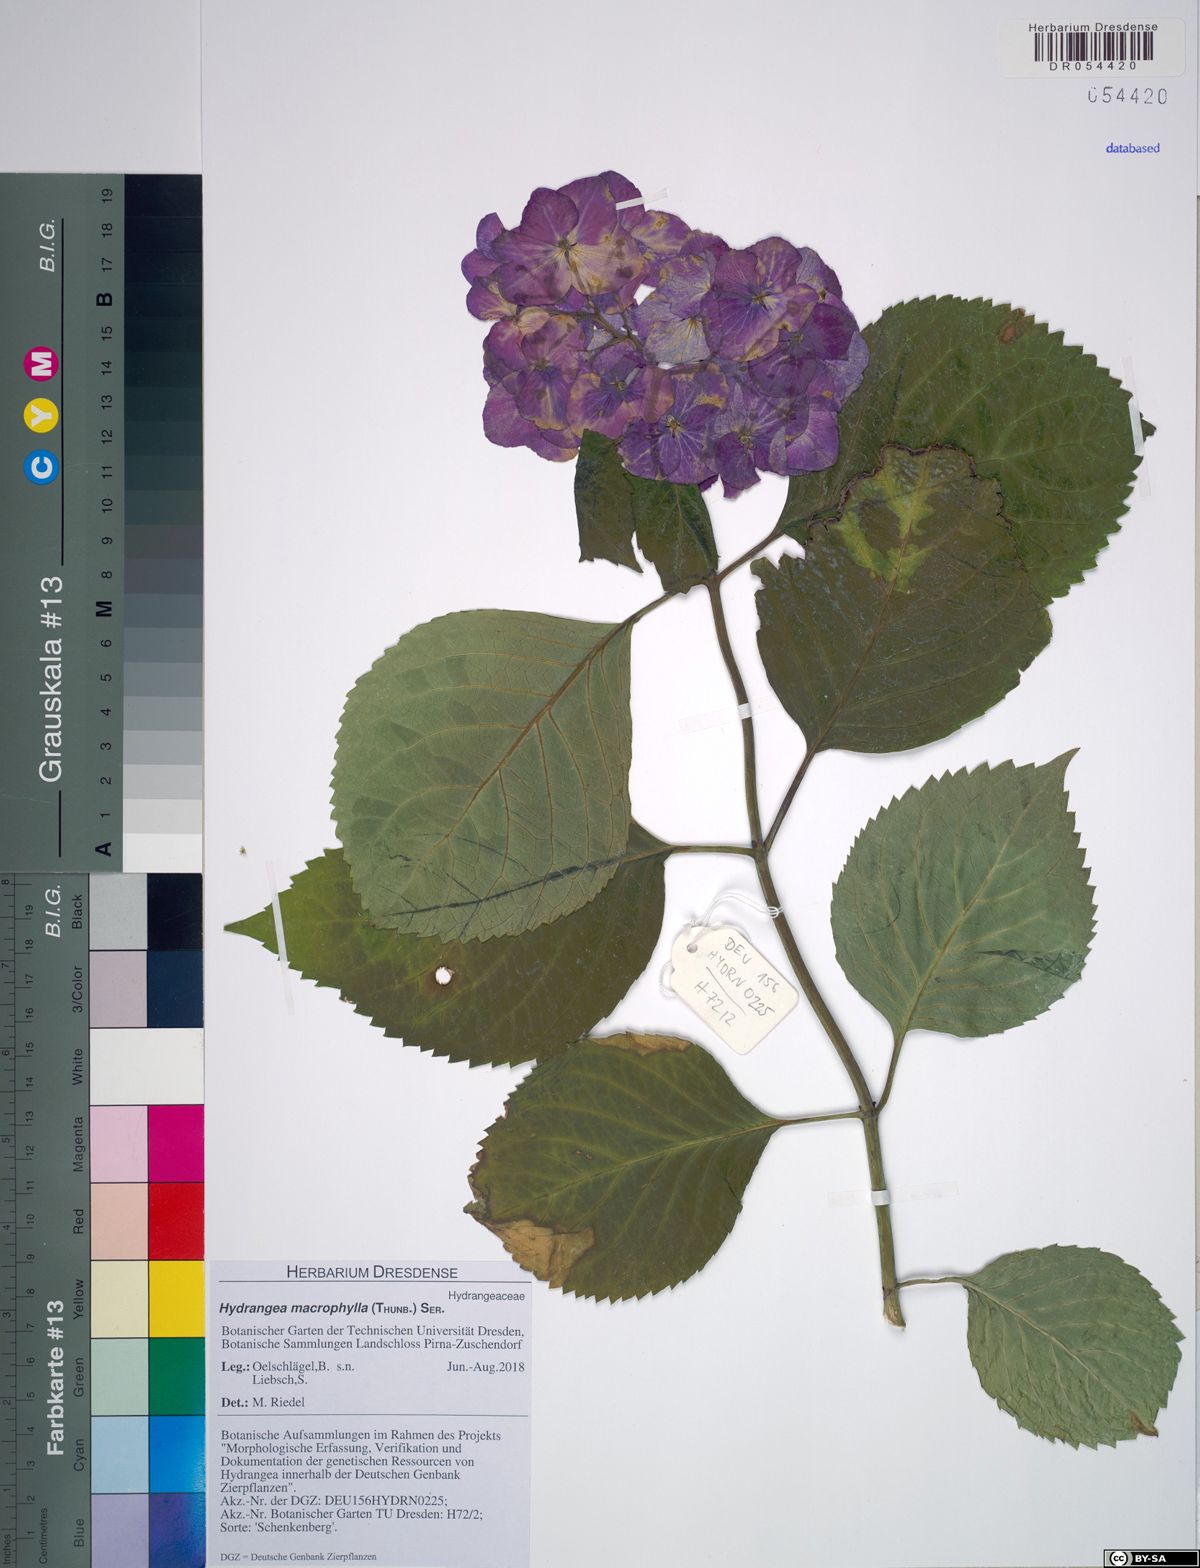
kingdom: Plantae
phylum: Tracheophyta
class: Magnoliopsida
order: Cornales
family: Hydrangeaceae
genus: Hydrangea
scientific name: Hydrangea macrophylla
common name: Hydrangea
